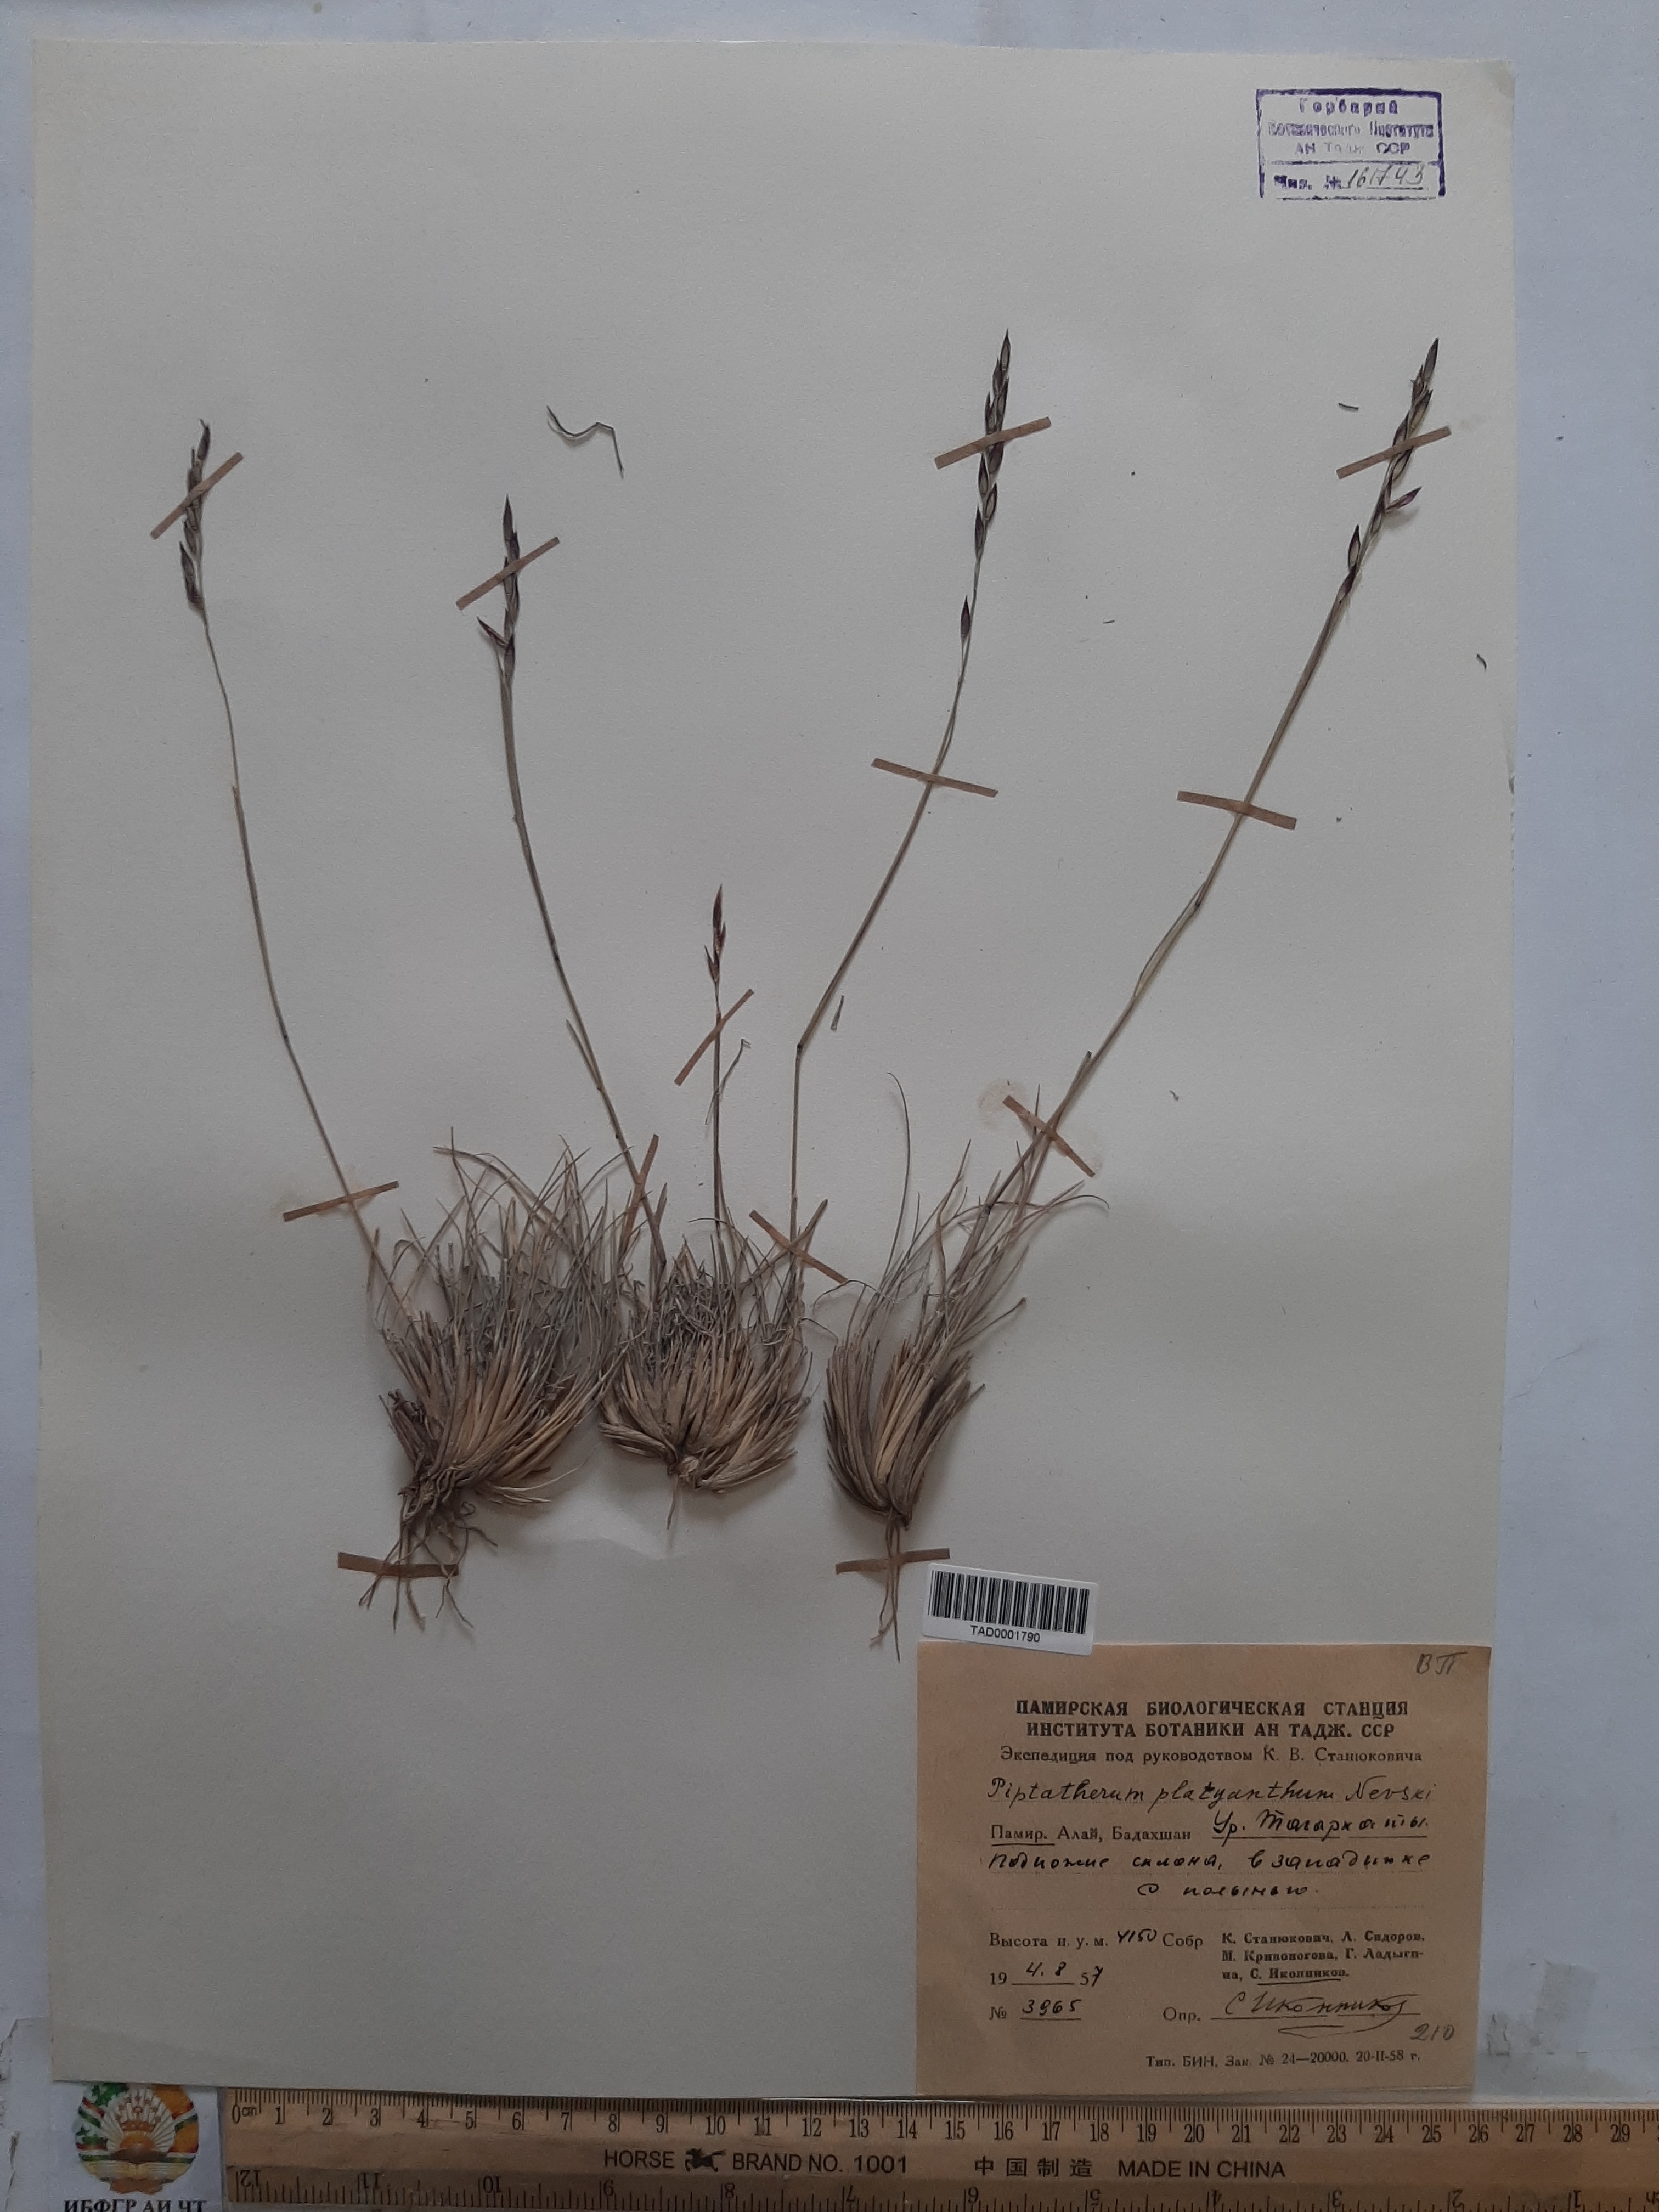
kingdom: Plantae
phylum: Tracheophyta
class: Liliopsida
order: Poales
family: Poaceae
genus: Piptatherum
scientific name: Piptatherum platyanthum
